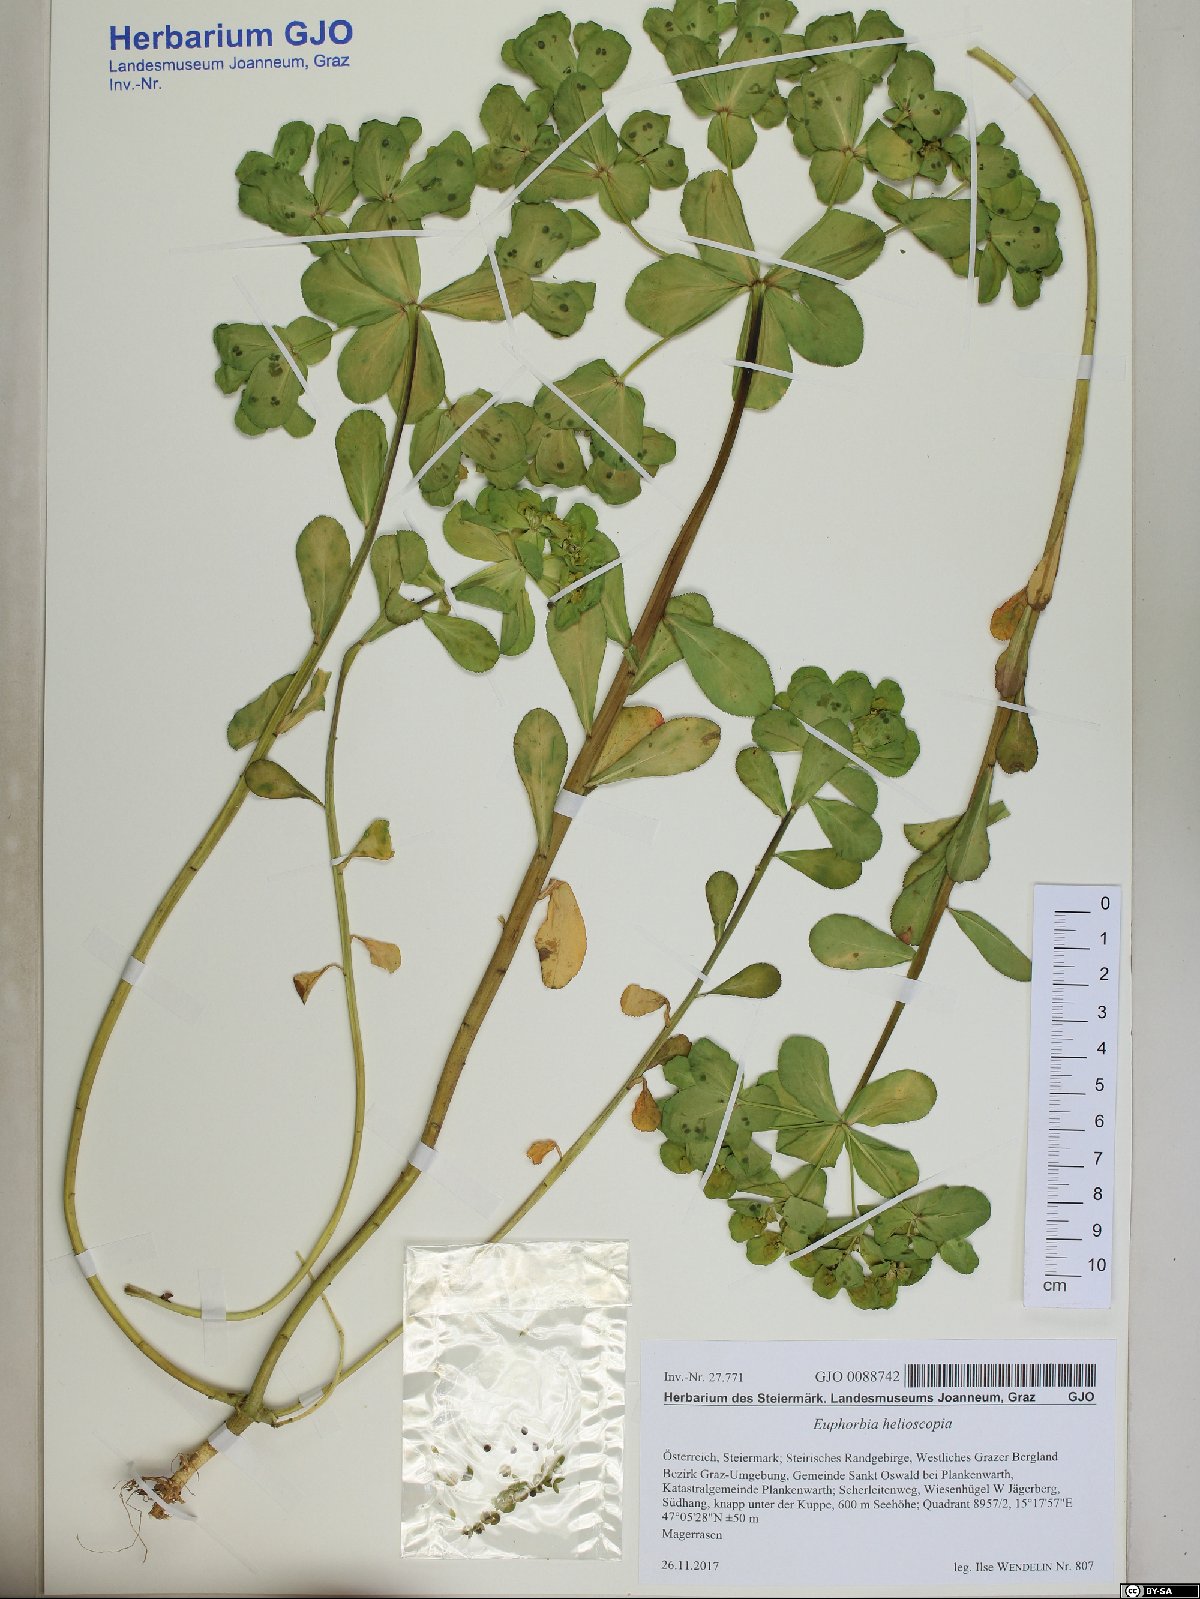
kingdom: Plantae
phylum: Tracheophyta
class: Magnoliopsida
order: Malpighiales
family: Euphorbiaceae
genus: Euphorbia
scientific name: Euphorbia helioscopia
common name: Sun spurge
